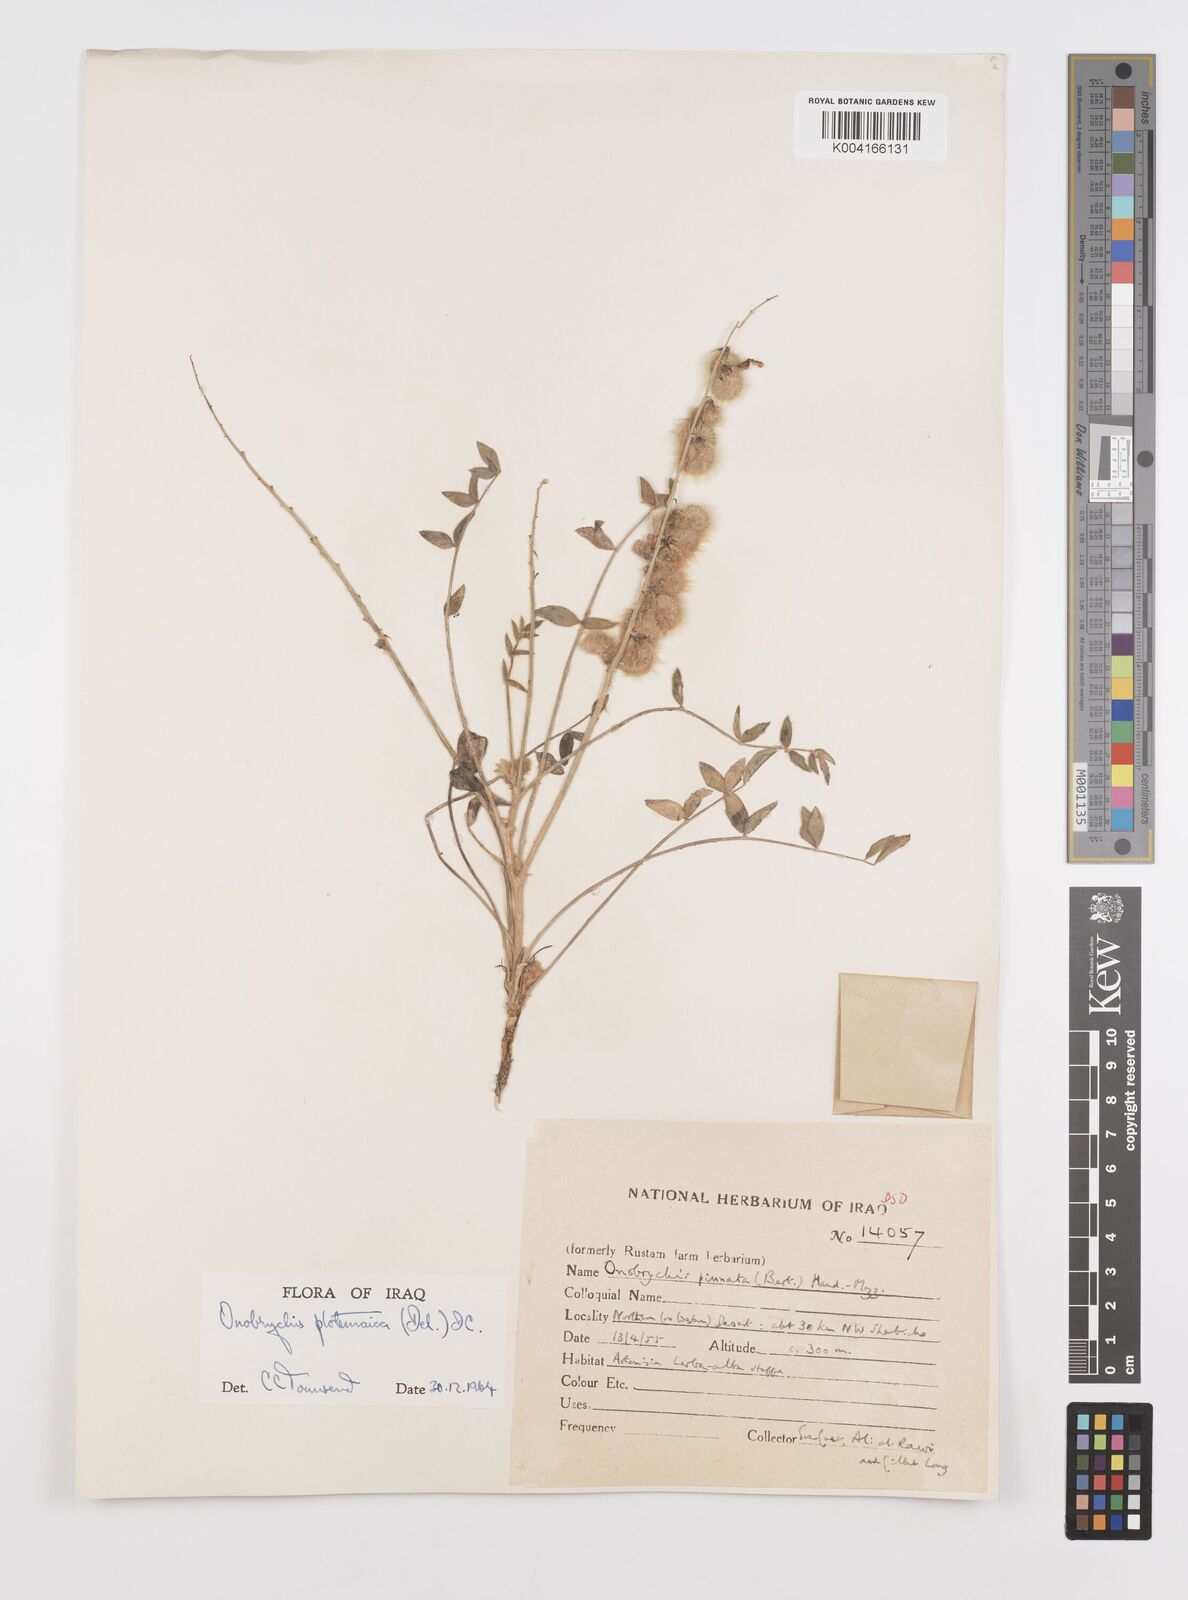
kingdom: Plantae
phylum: Tracheophyta
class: Magnoliopsida
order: Fabales
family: Fabaceae
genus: Onobrychis
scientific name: Onobrychis ptolemaica
